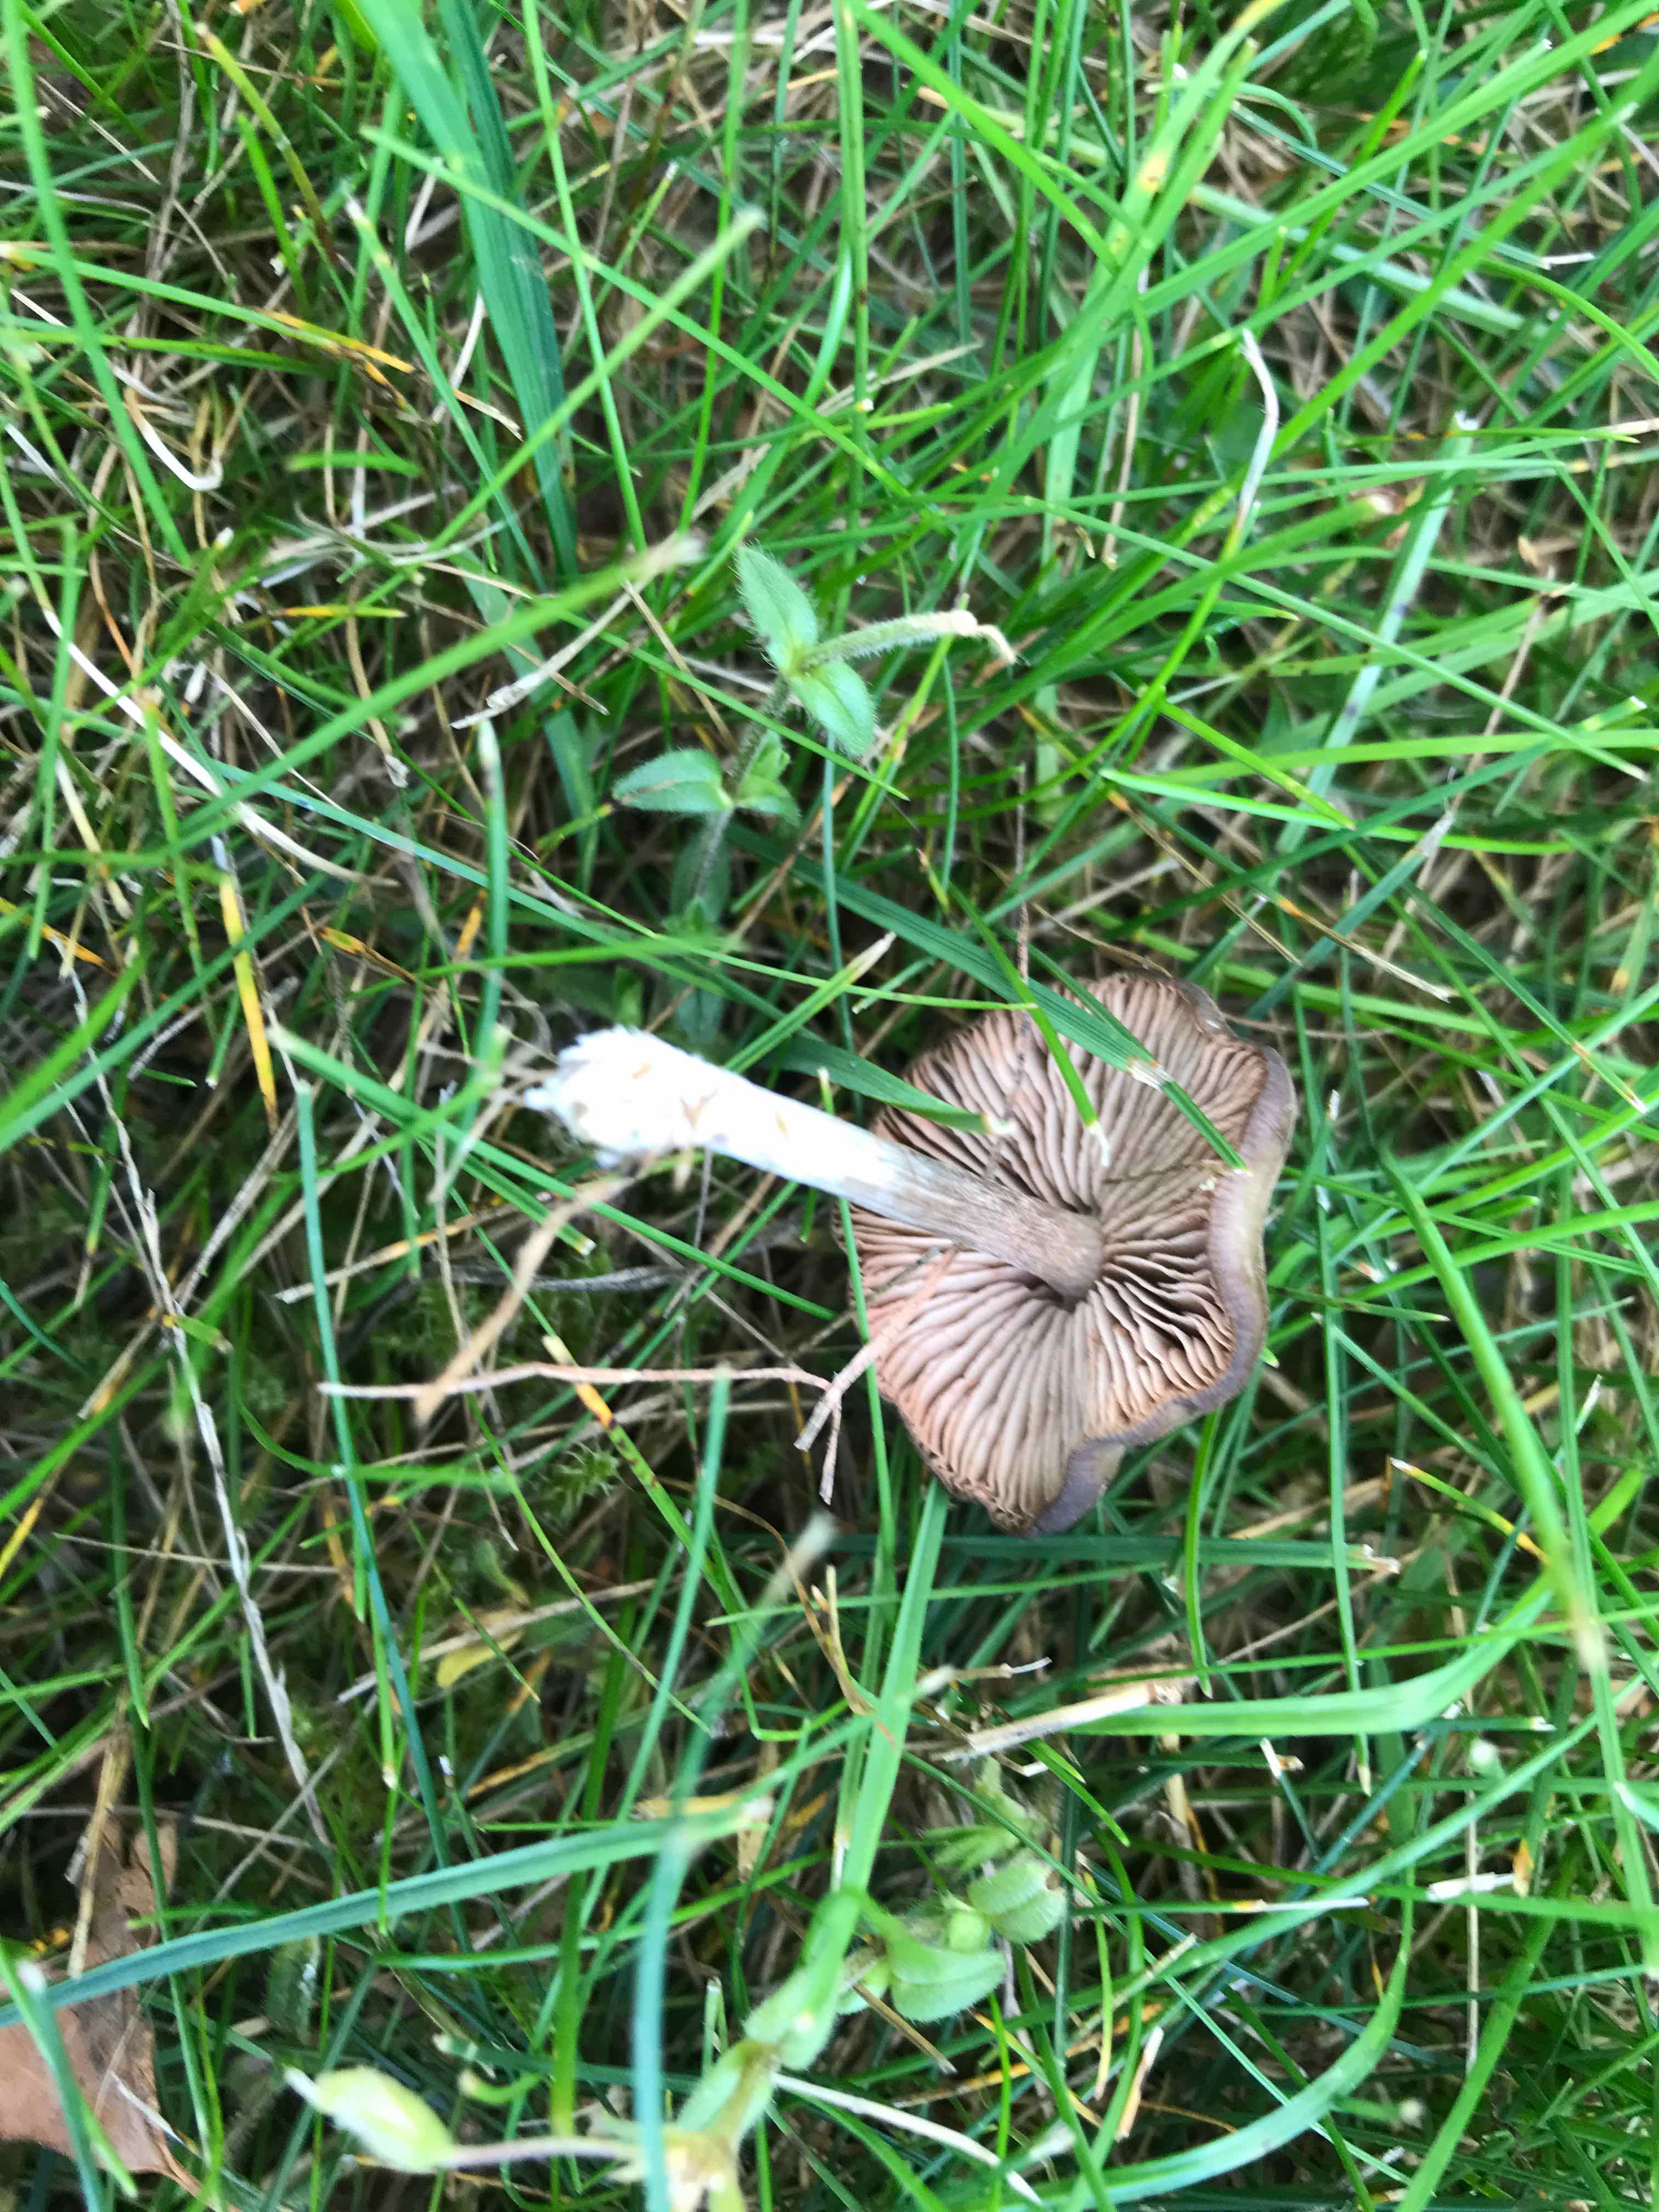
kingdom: Fungi
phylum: Basidiomycota
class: Agaricomycetes
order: Agaricales
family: Entolomataceae
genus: Entoloma
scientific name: Entoloma
